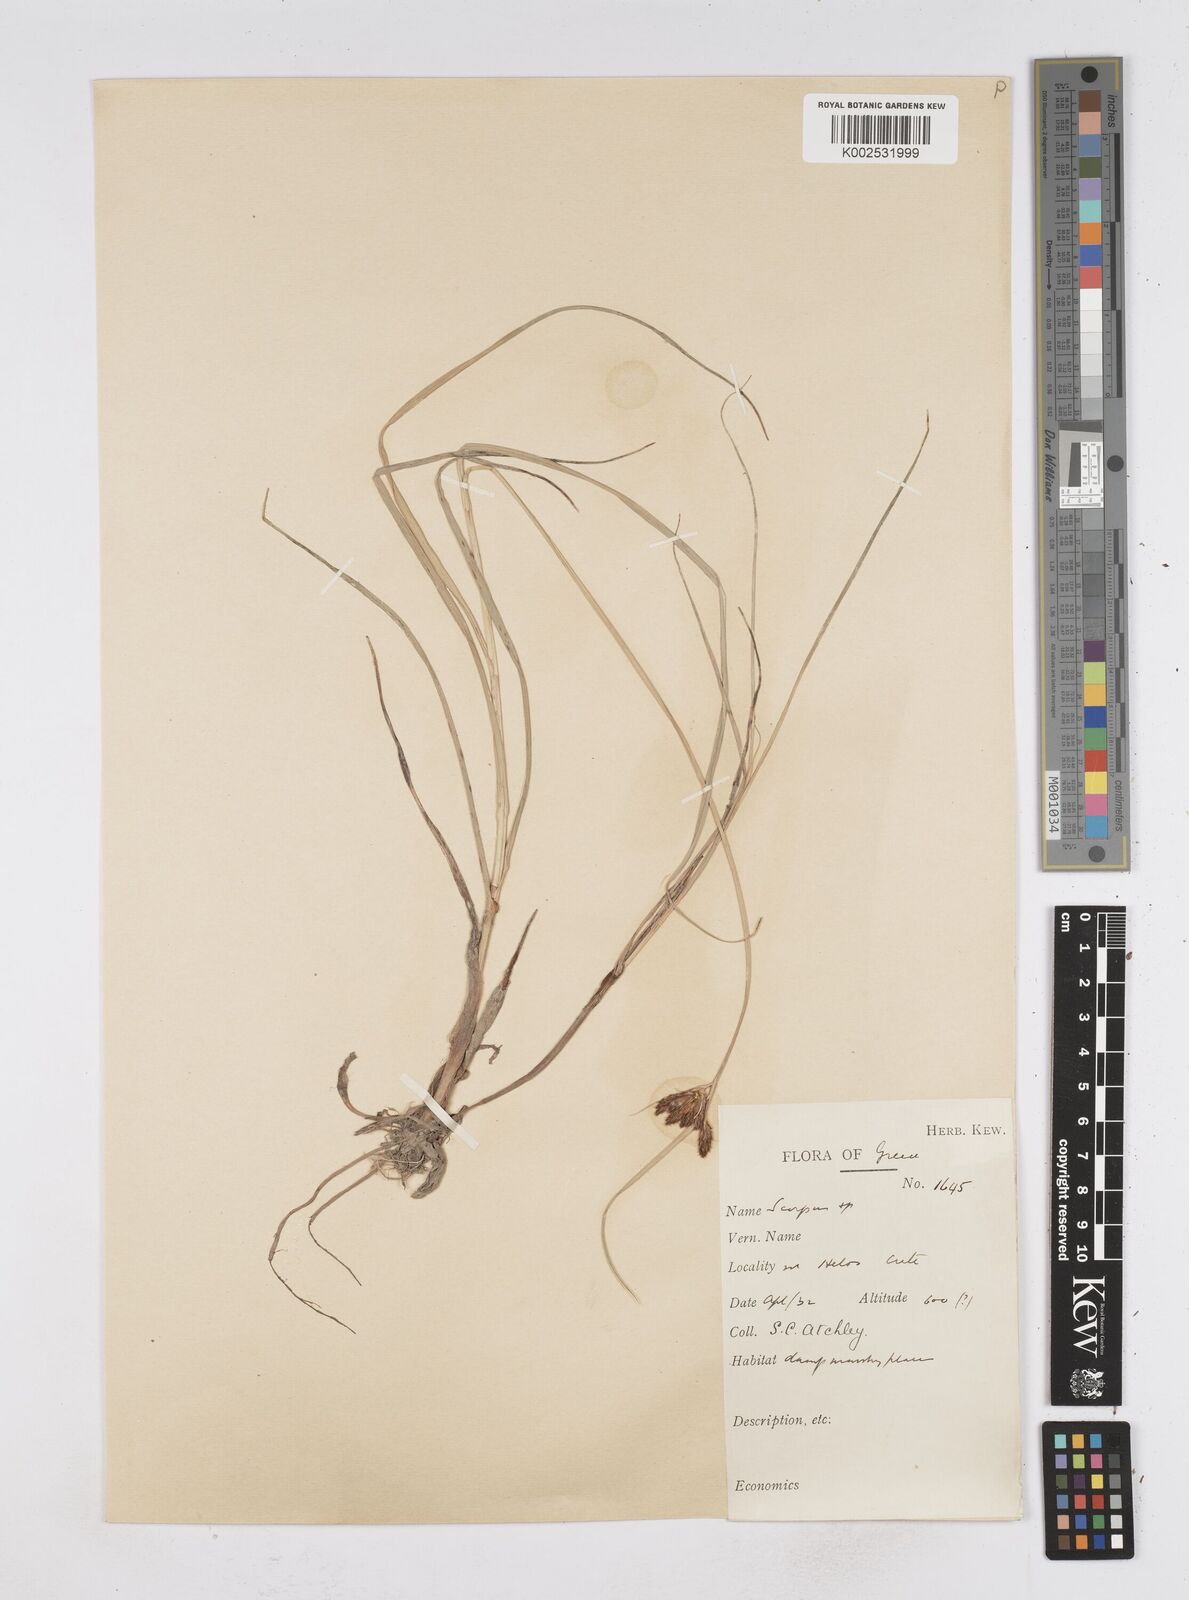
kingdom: Plantae
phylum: Tracheophyta
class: Liliopsida
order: Poales
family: Cyperaceae
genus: Bolboschoenus
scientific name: Bolboschoenus maritimus
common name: Sea club-rush
